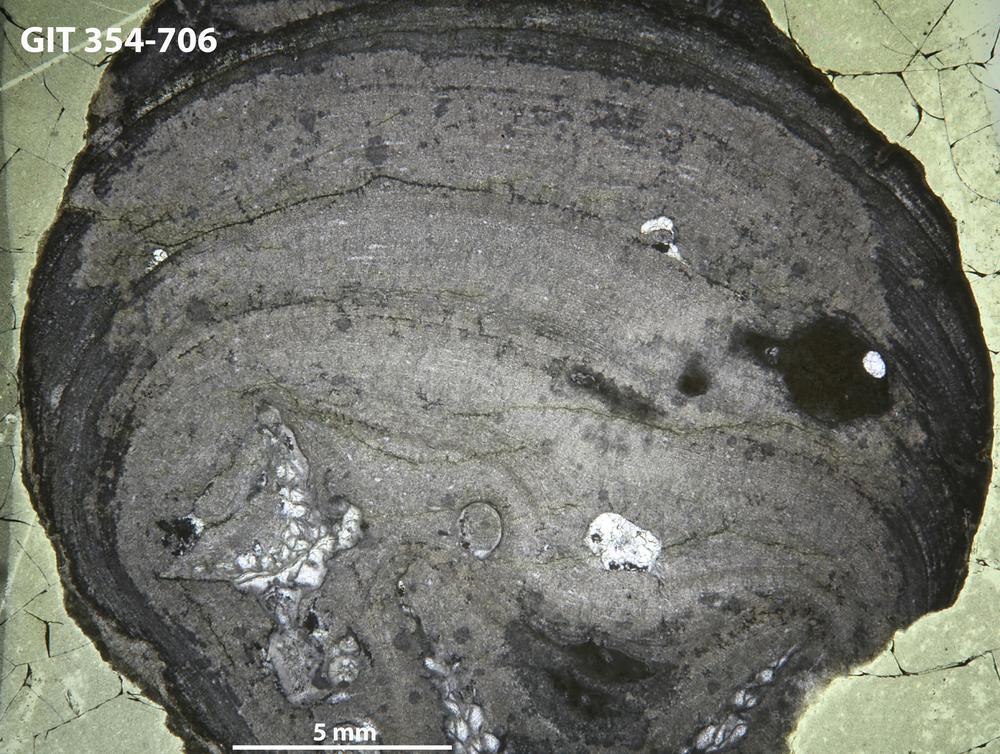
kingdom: Animalia
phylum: Porifera
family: Densastromatidae
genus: Araneosustroma
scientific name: Araneosustroma
